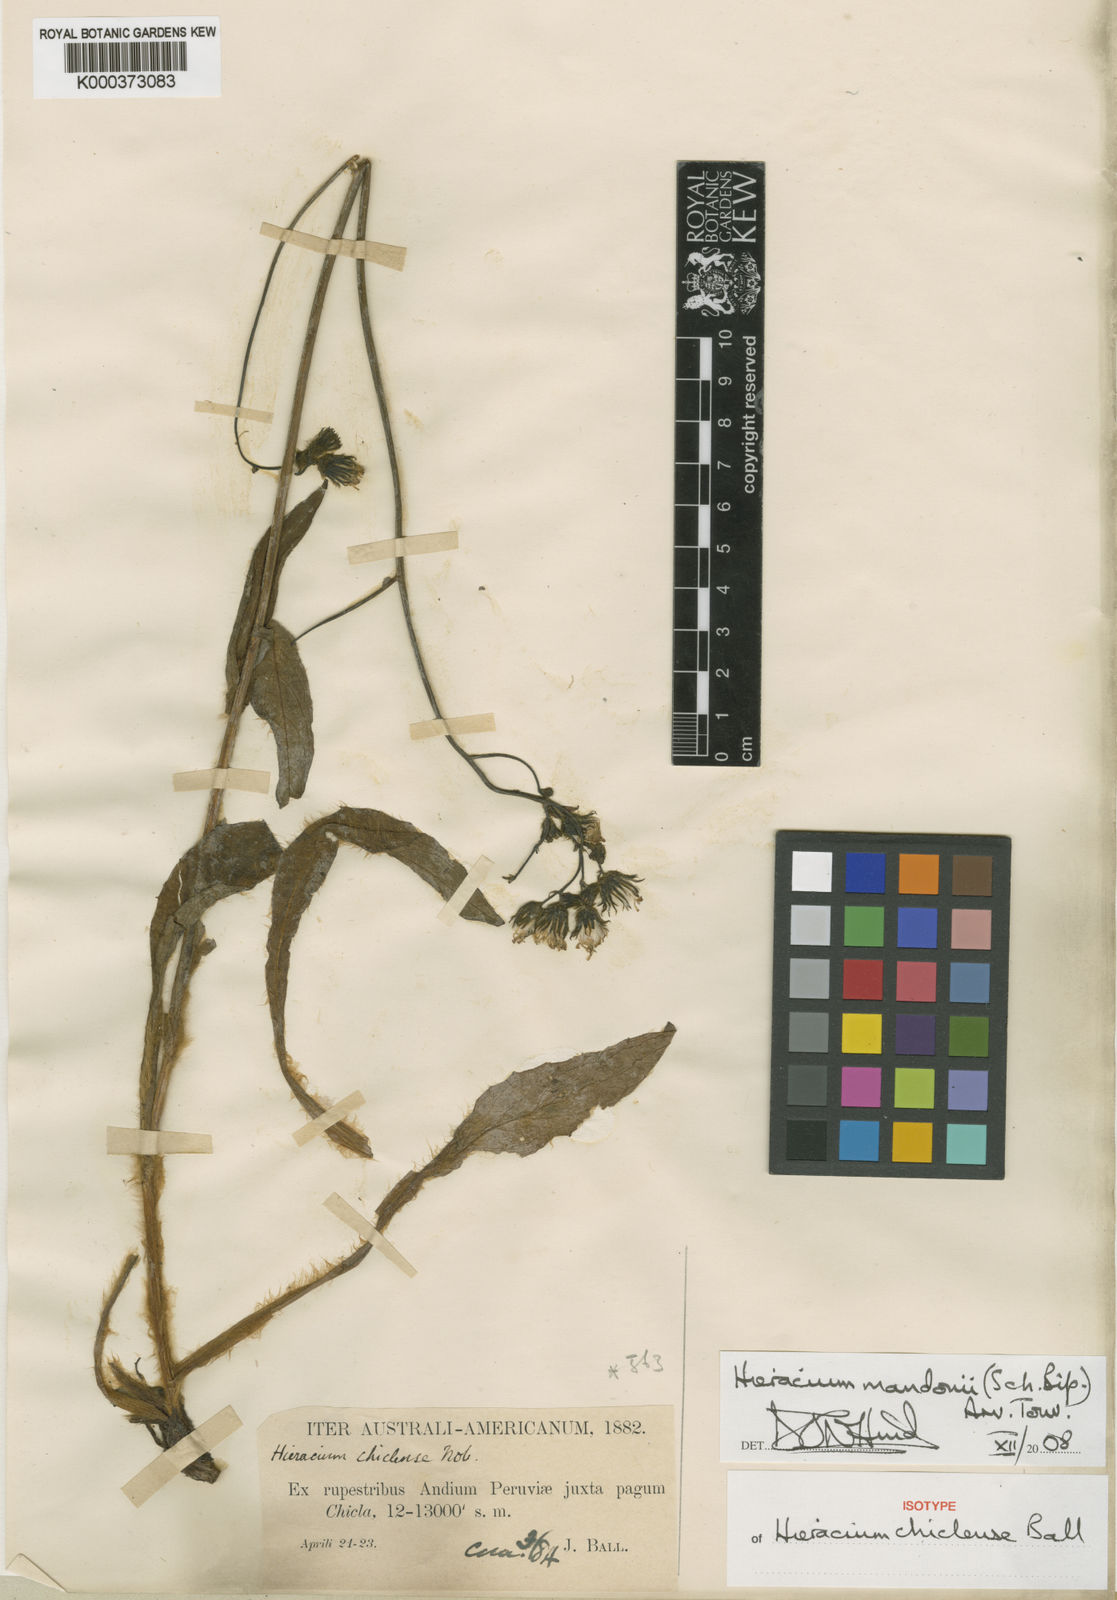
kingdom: Plantae
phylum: Tracheophyta
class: Magnoliopsida
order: Asterales
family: Asteraceae
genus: Hieracium
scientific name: Hieracium
